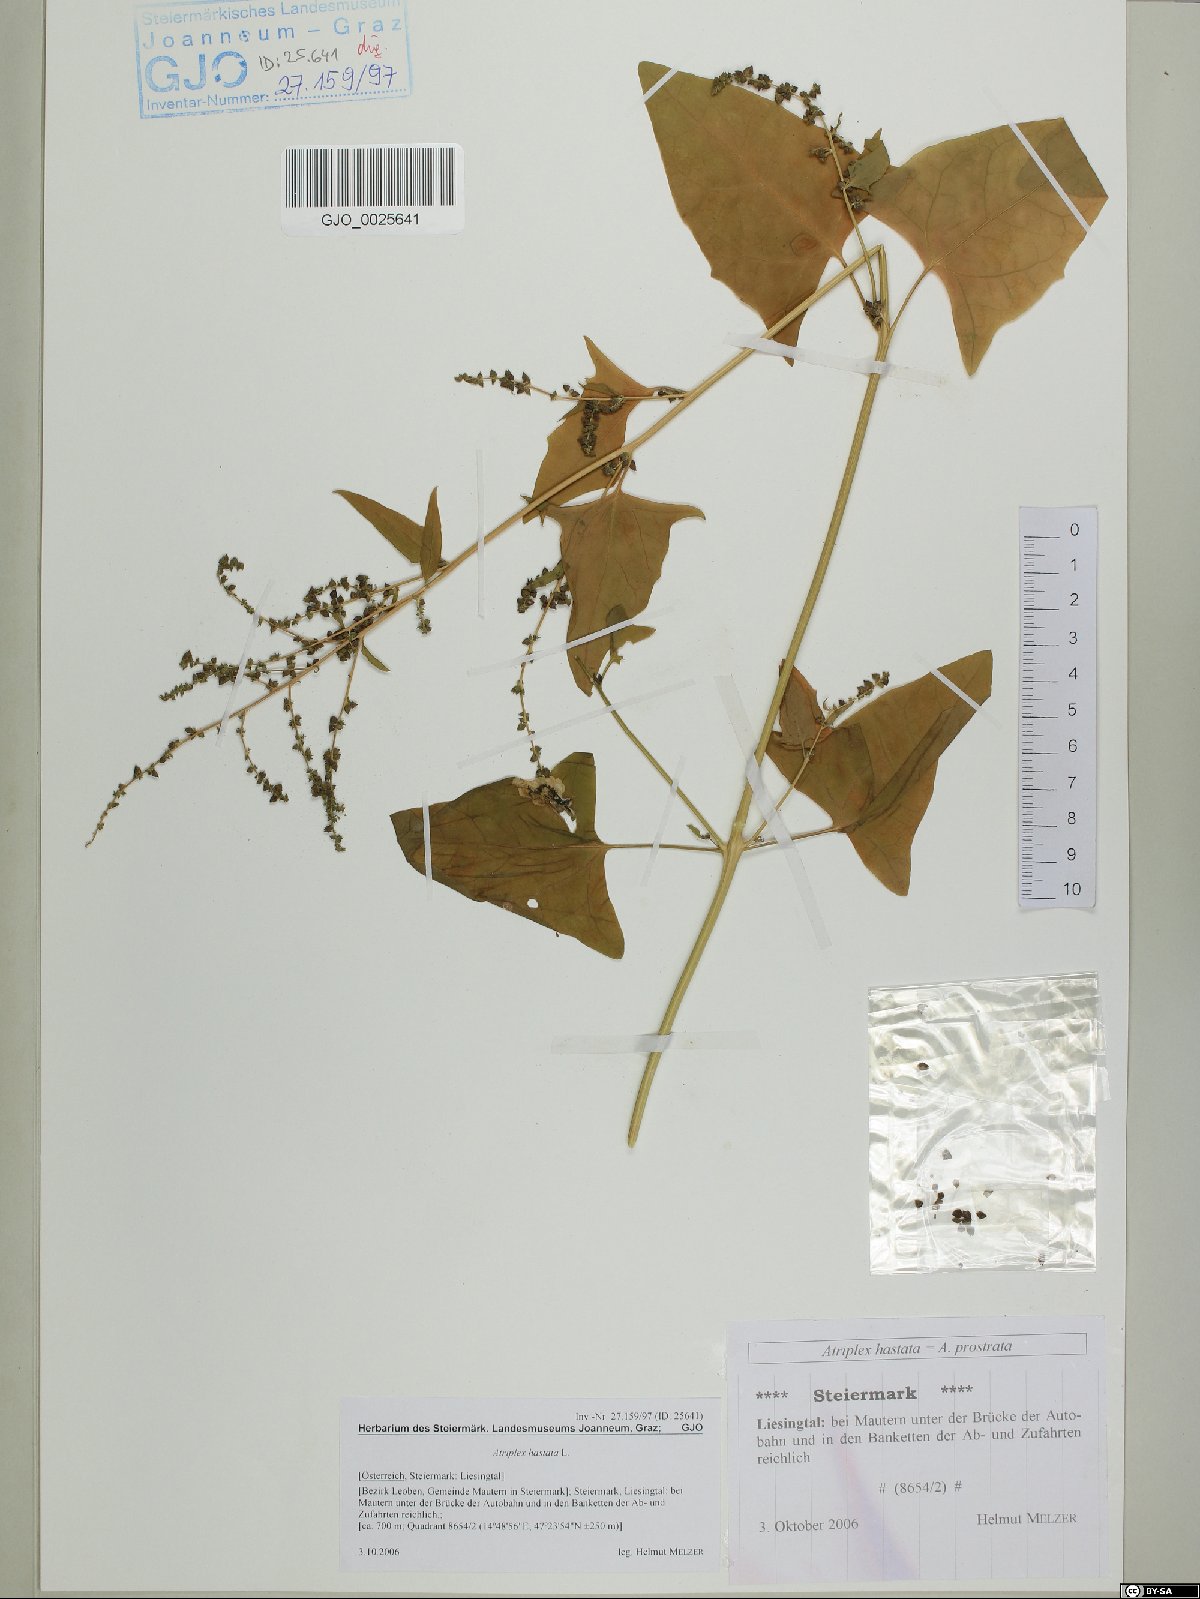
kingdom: Plantae
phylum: Tracheophyta
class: Magnoliopsida
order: Caryophyllales
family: Amaranthaceae
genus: Atriplex
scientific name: Atriplex calotheca
